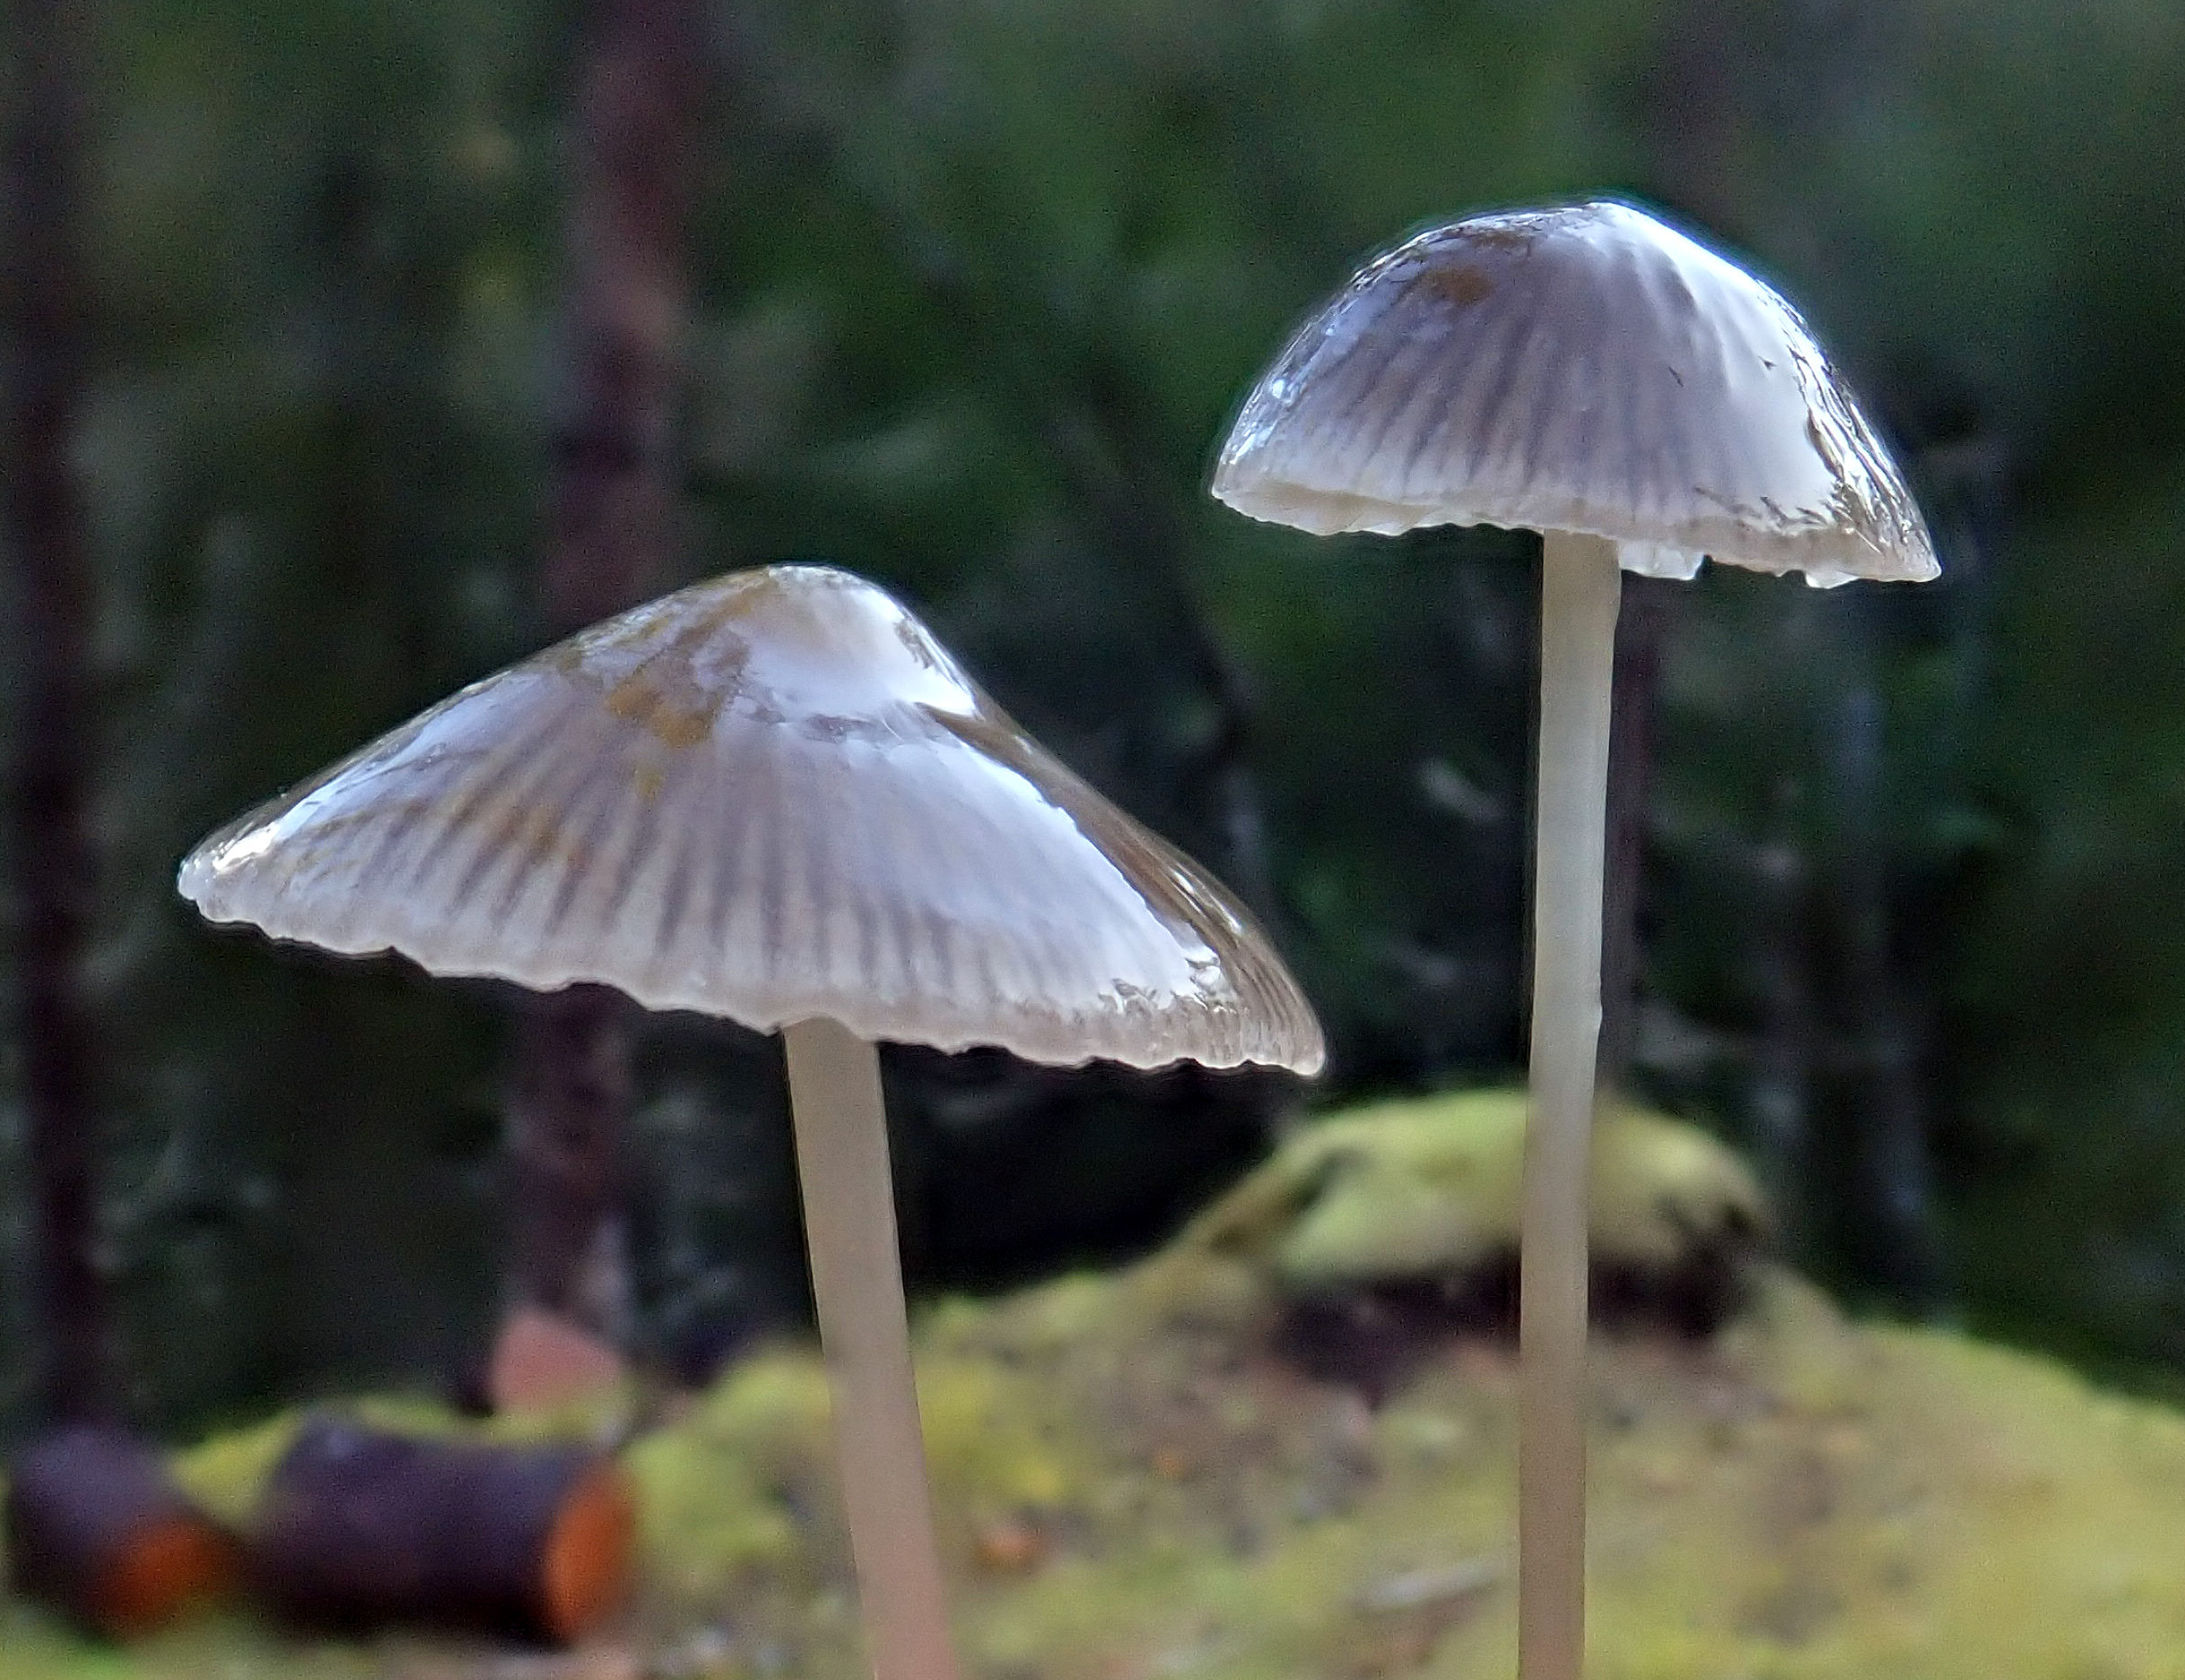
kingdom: Fungi
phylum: Basidiomycota
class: Agaricomycetes
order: Agaricales
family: Mycenaceae
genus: Mycena
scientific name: Mycena
